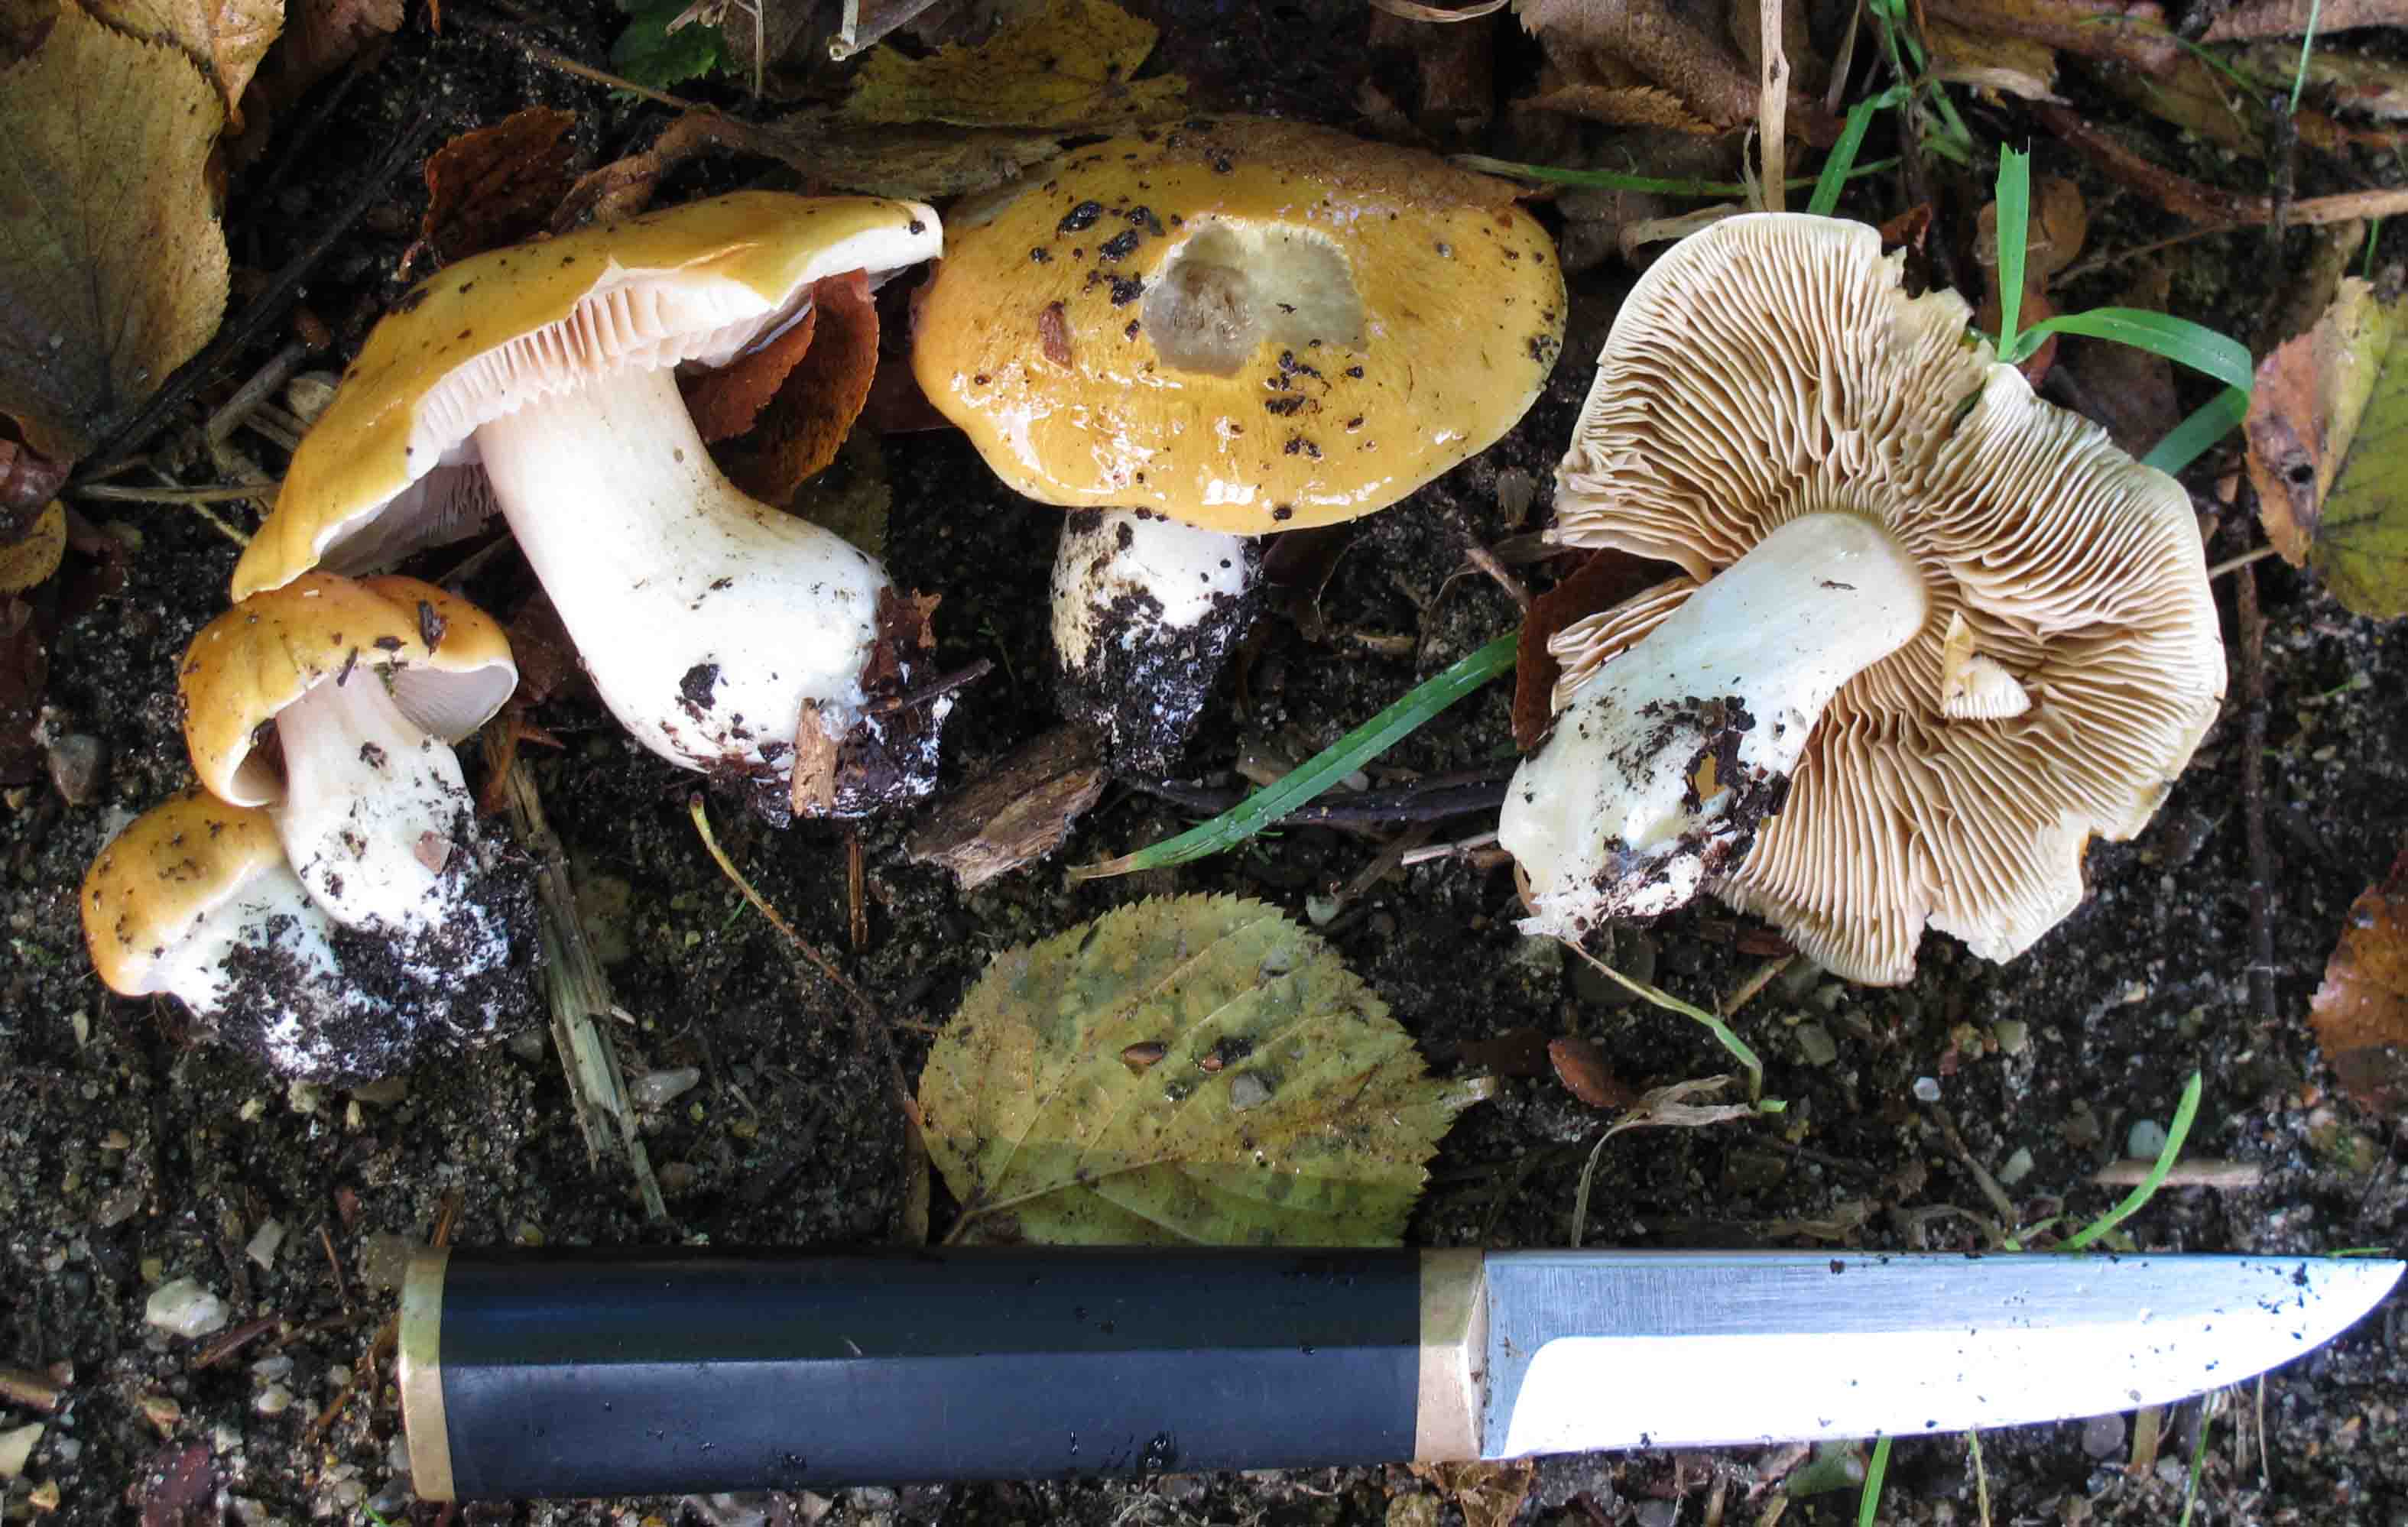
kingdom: Fungi
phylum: Basidiomycota
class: Agaricomycetes
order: Agaricales
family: Cortinariaceae
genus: Thaxterogaster
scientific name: Thaxterogaster emollitus
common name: besk slørhat
